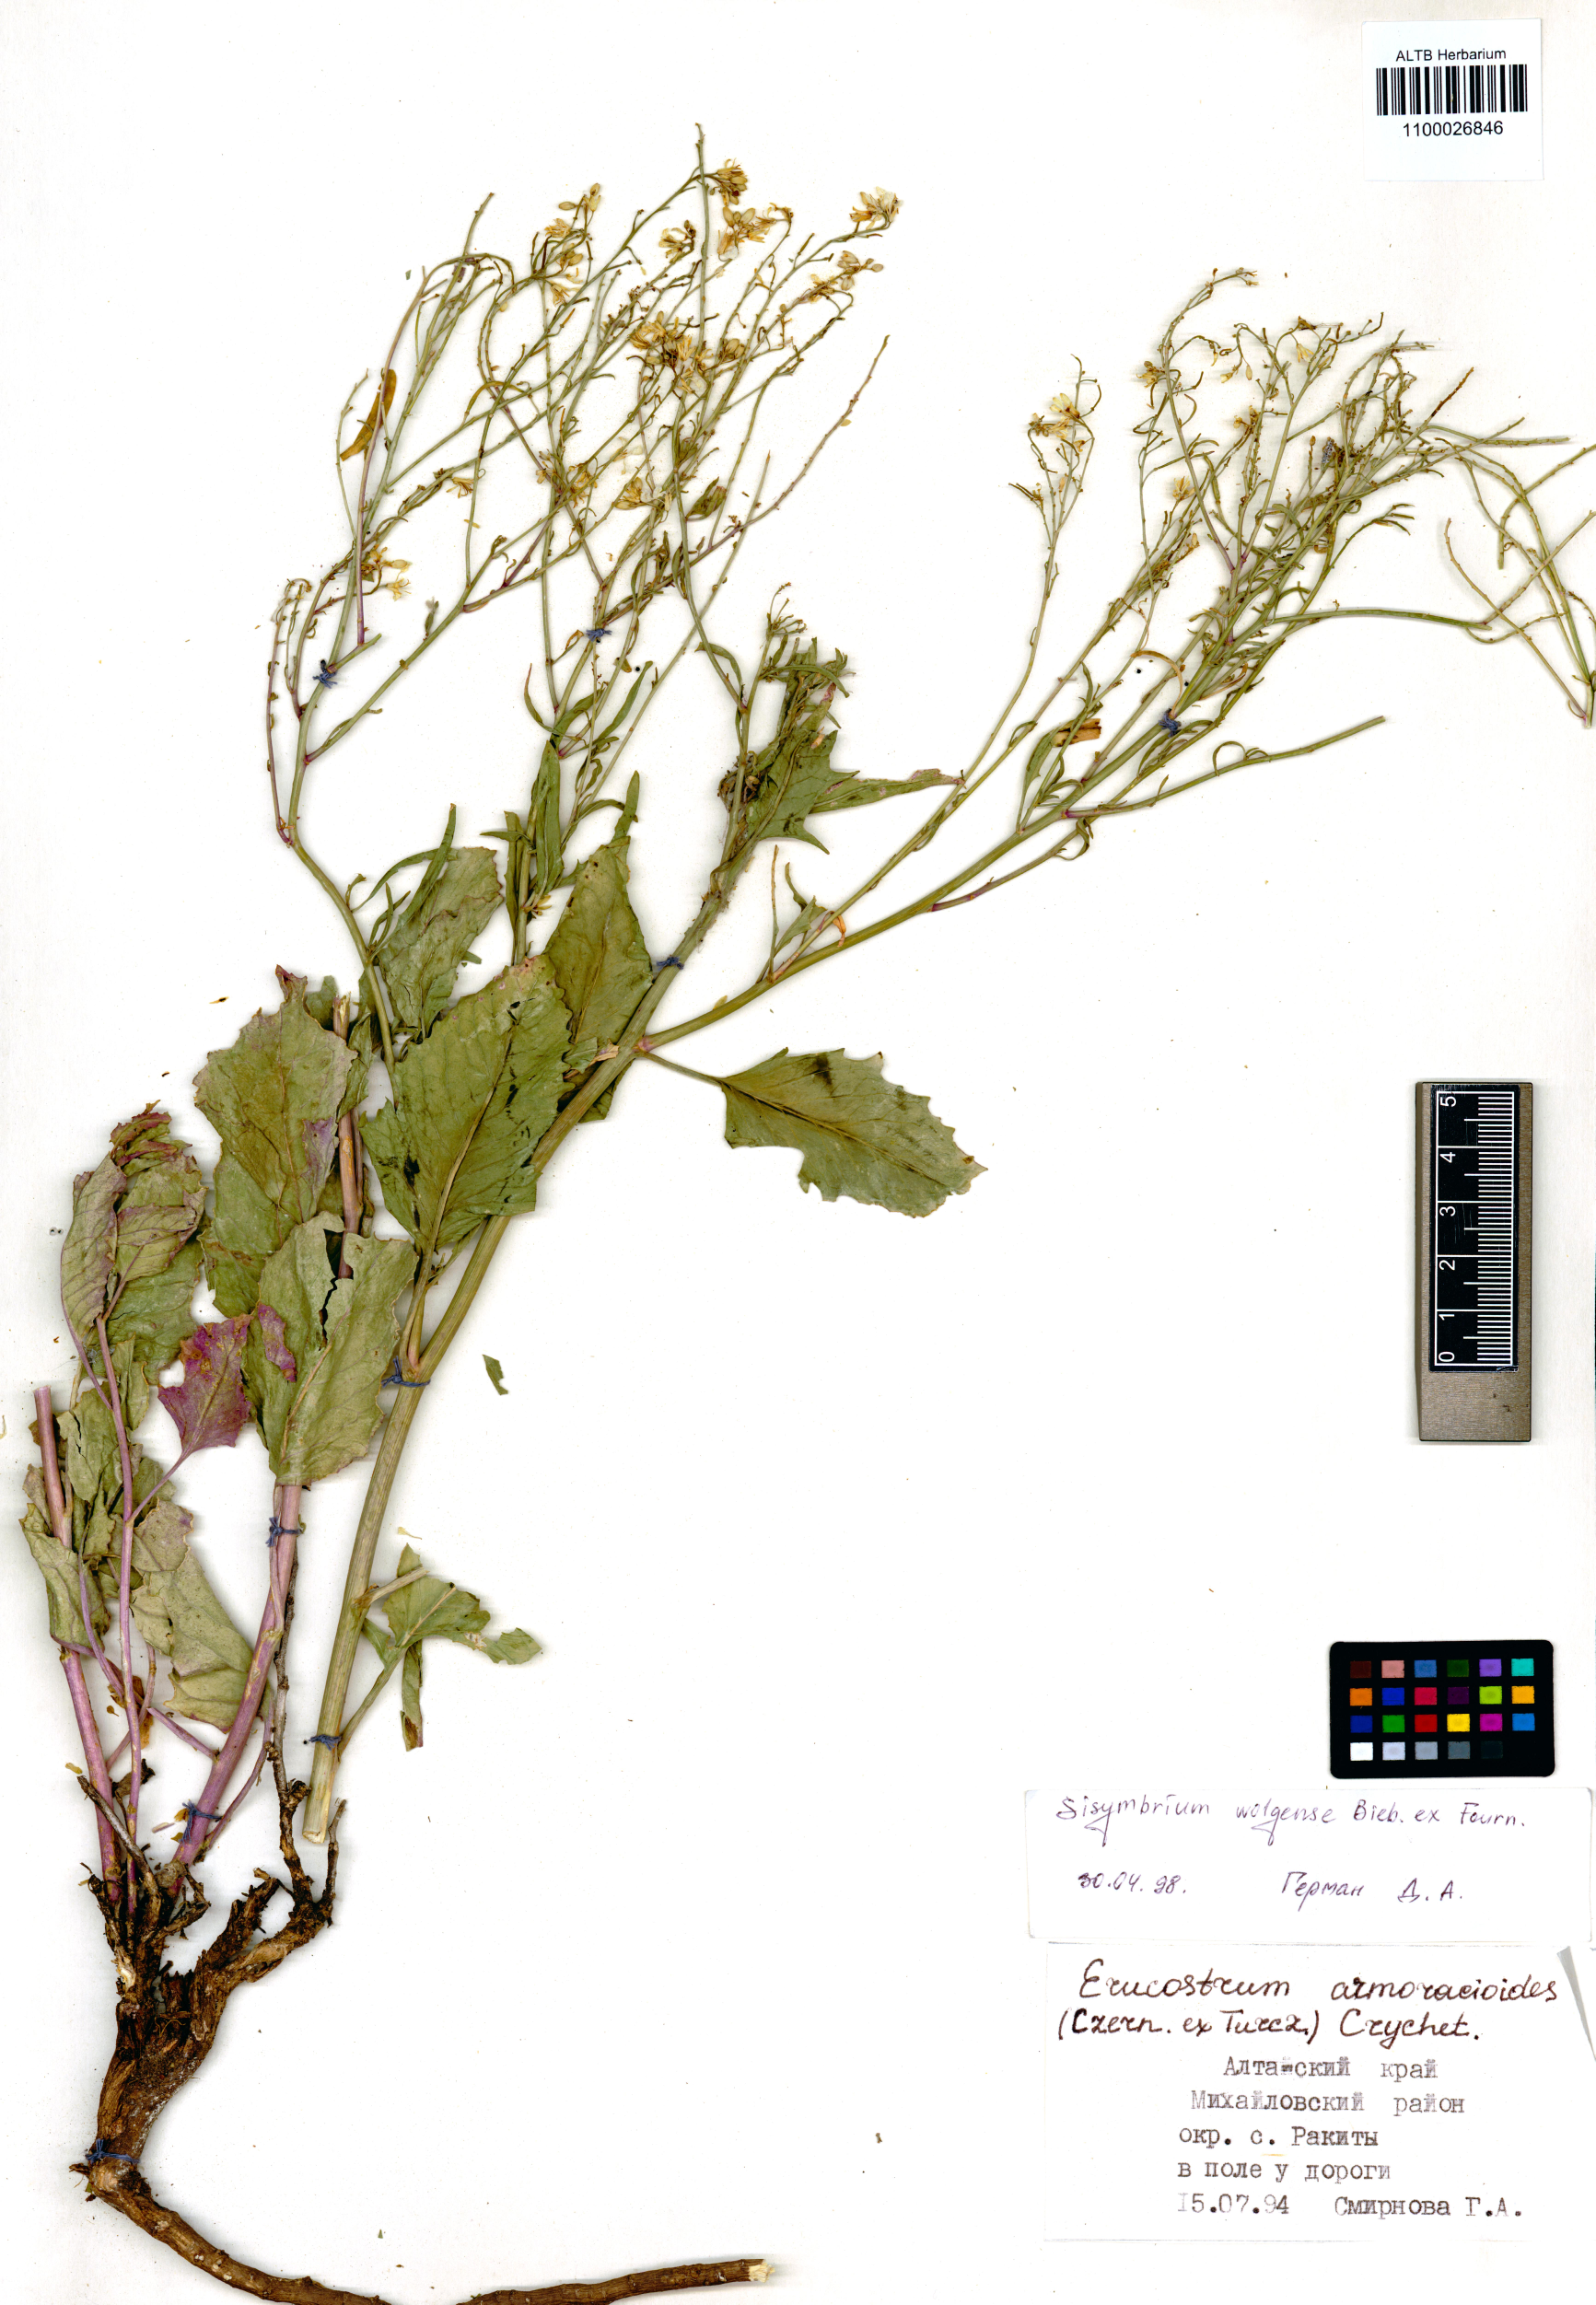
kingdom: Plantae
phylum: Tracheophyta
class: Magnoliopsida
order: Brassicales
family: Brassicaceae
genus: Sisymbrium
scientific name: Sisymbrium volgense
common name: Russian mustard
